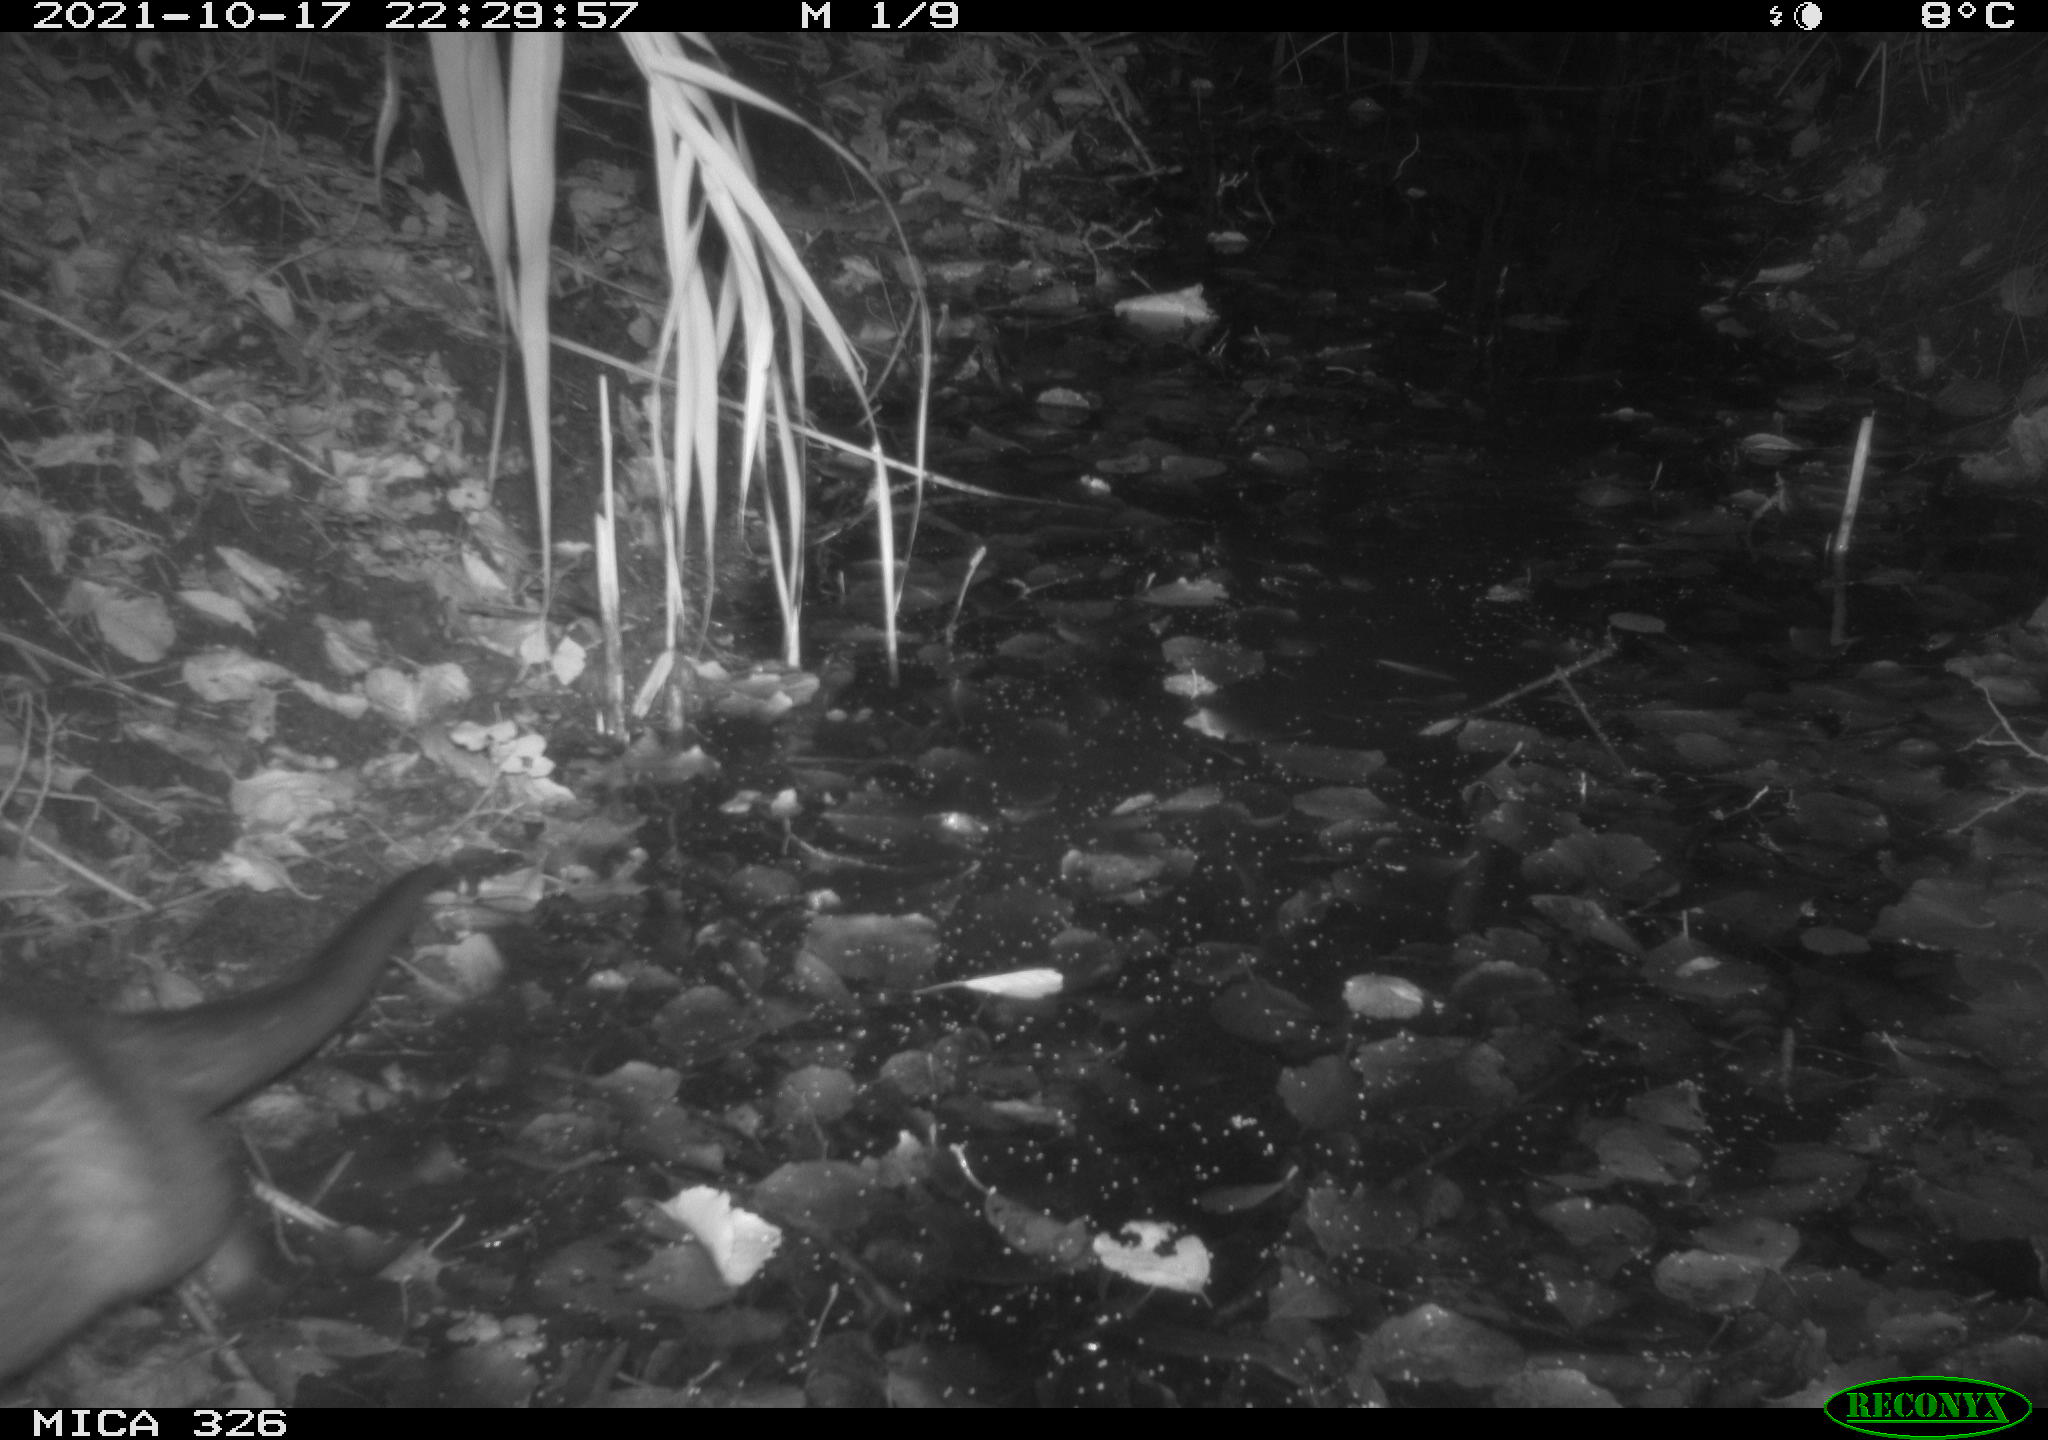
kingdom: Animalia
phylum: Chordata
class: Mammalia
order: Rodentia
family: Myocastoridae
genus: Myocastor
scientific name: Myocastor coypus
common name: Coypu
